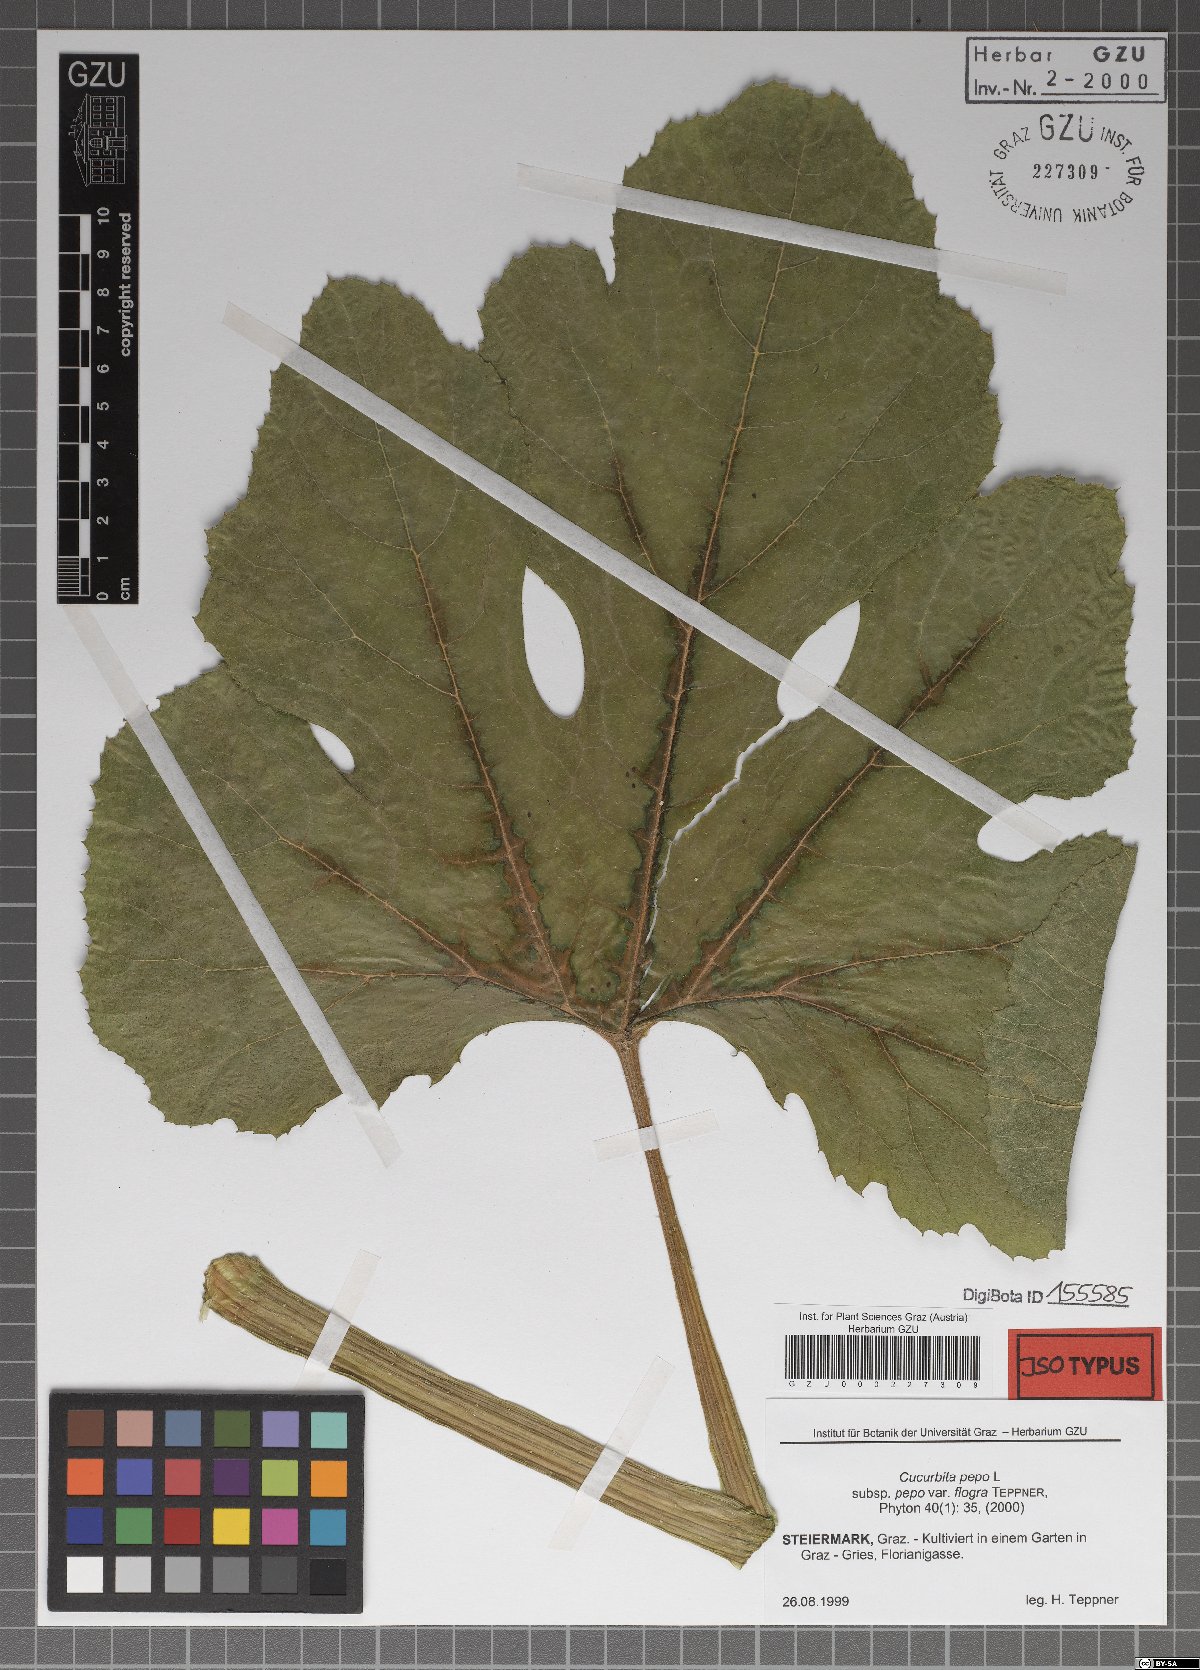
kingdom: Plantae
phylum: Tracheophyta
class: Magnoliopsida
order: Cucurbitales
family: Cucurbitaceae
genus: Cucurbita
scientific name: Cucurbita pepo
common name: Marrow
